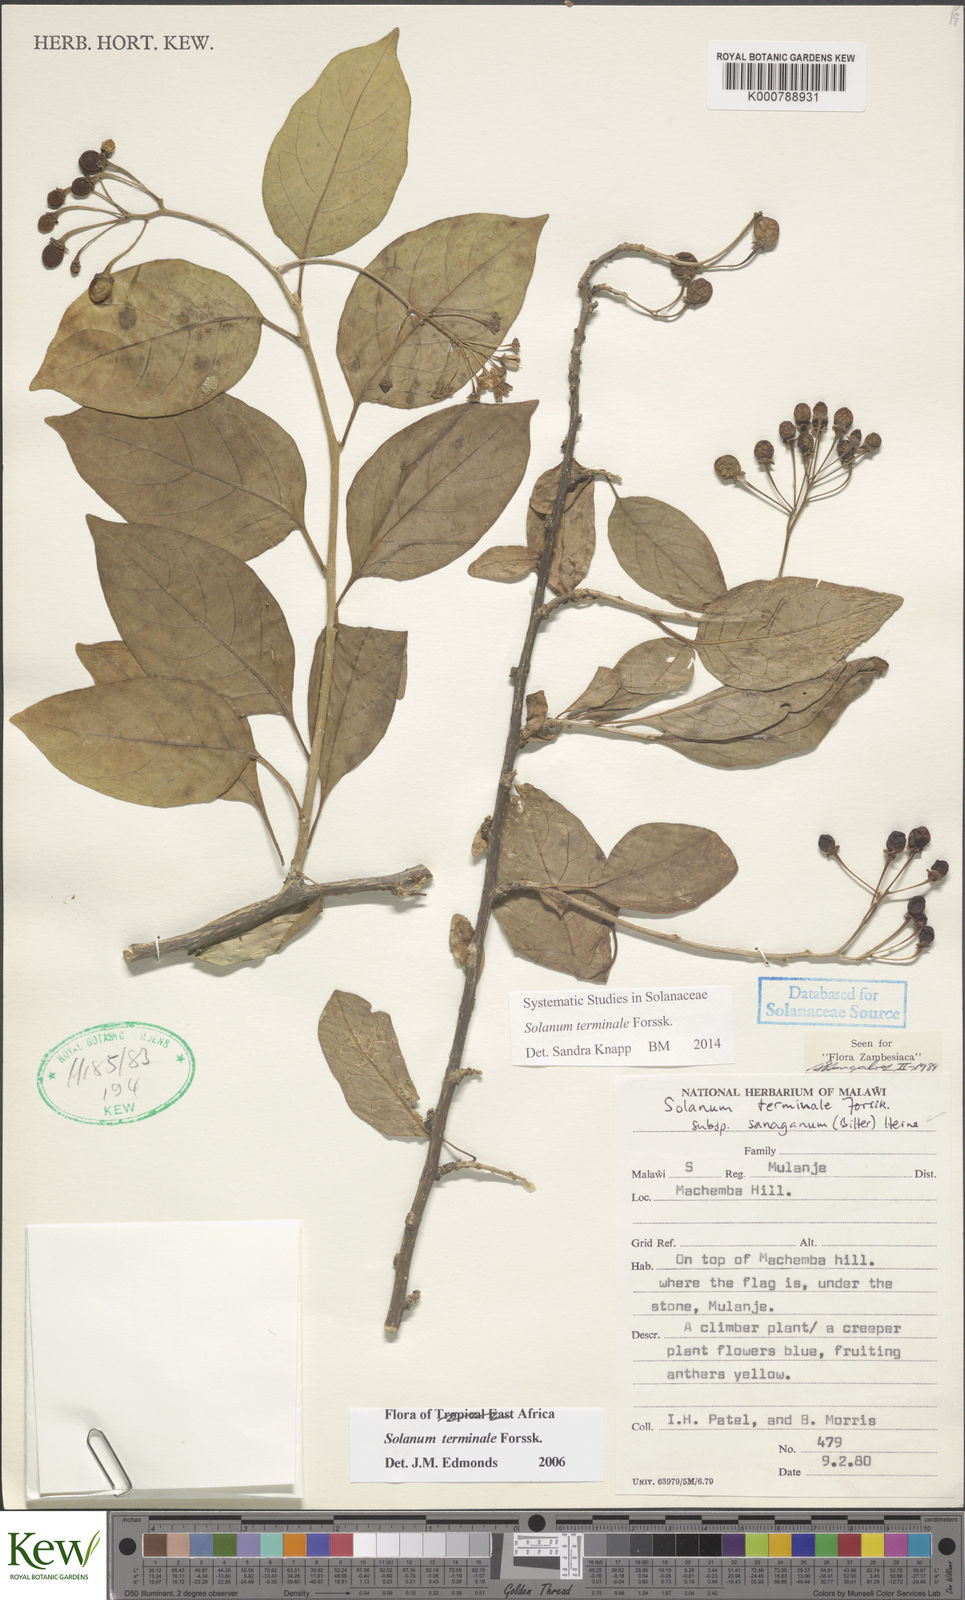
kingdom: Plantae
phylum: Tracheophyta
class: Magnoliopsida
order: Solanales
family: Solanaceae
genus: Solanum
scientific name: Solanum terminale
